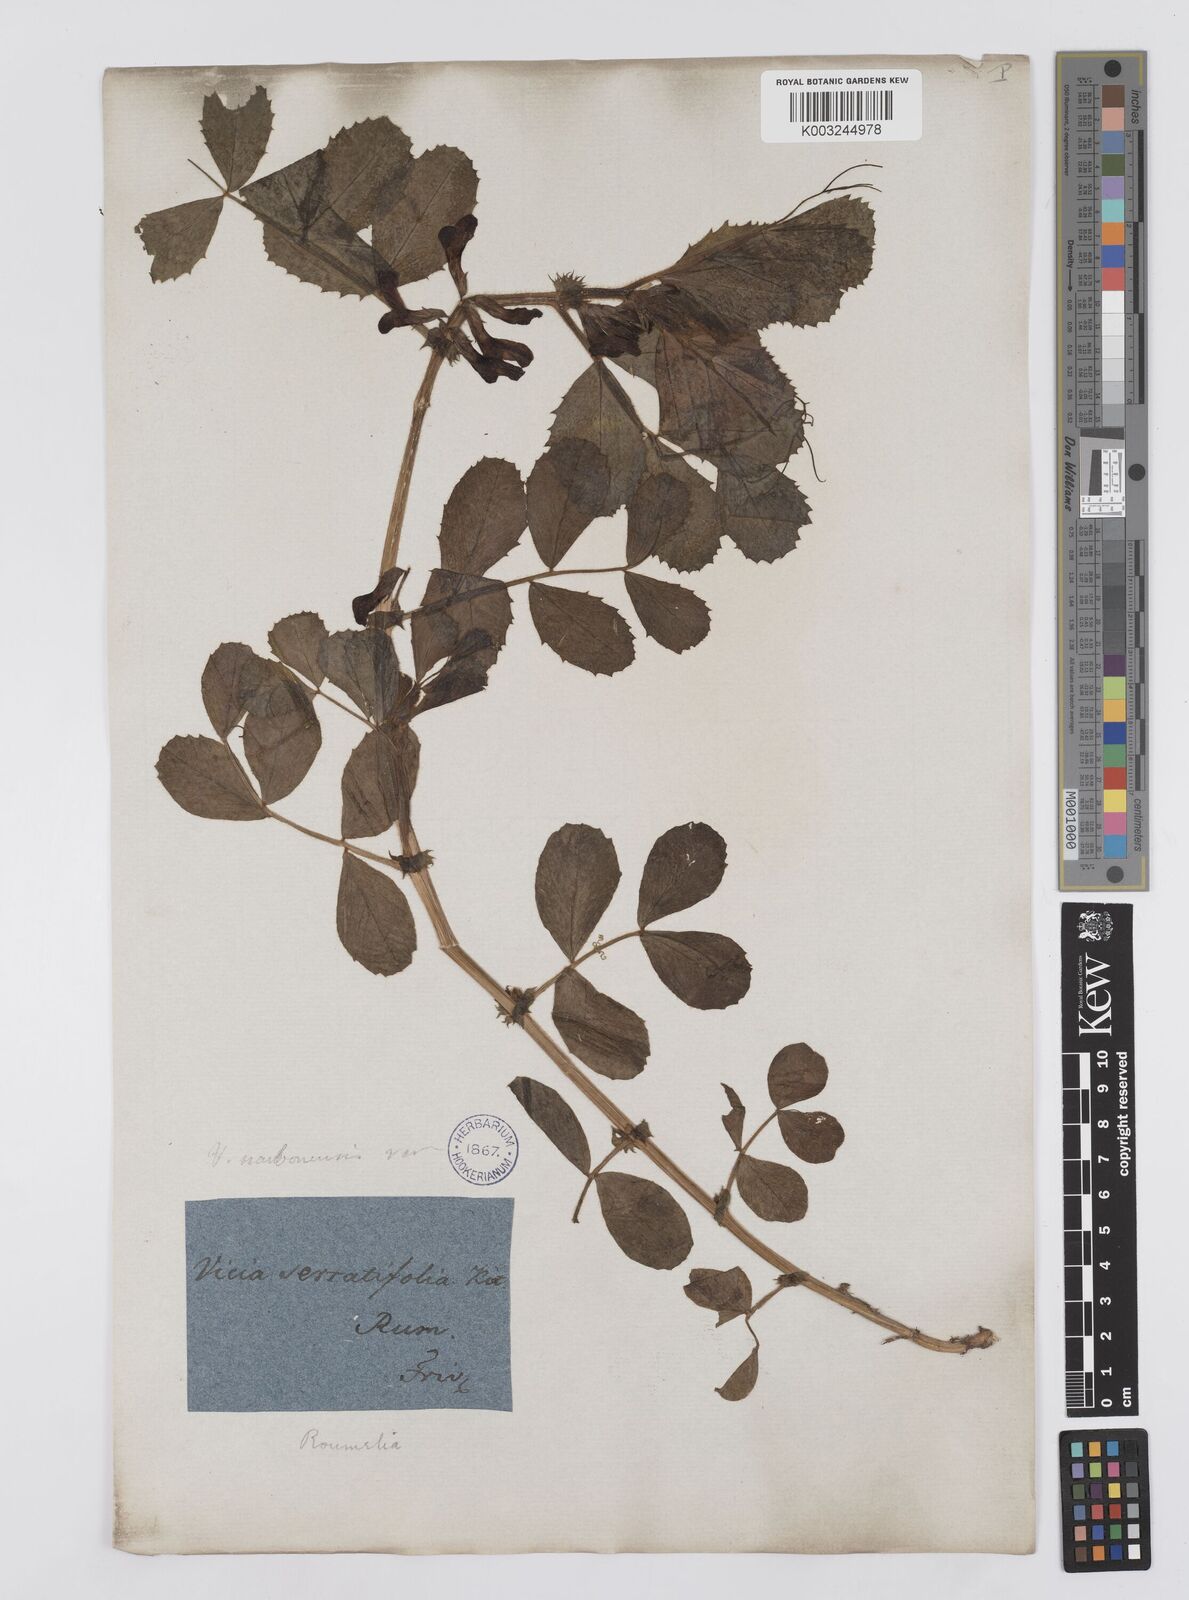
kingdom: Plantae
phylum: Tracheophyta
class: Magnoliopsida
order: Fabales
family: Fabaceae
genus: Vicia
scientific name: Vicia serratifolia
